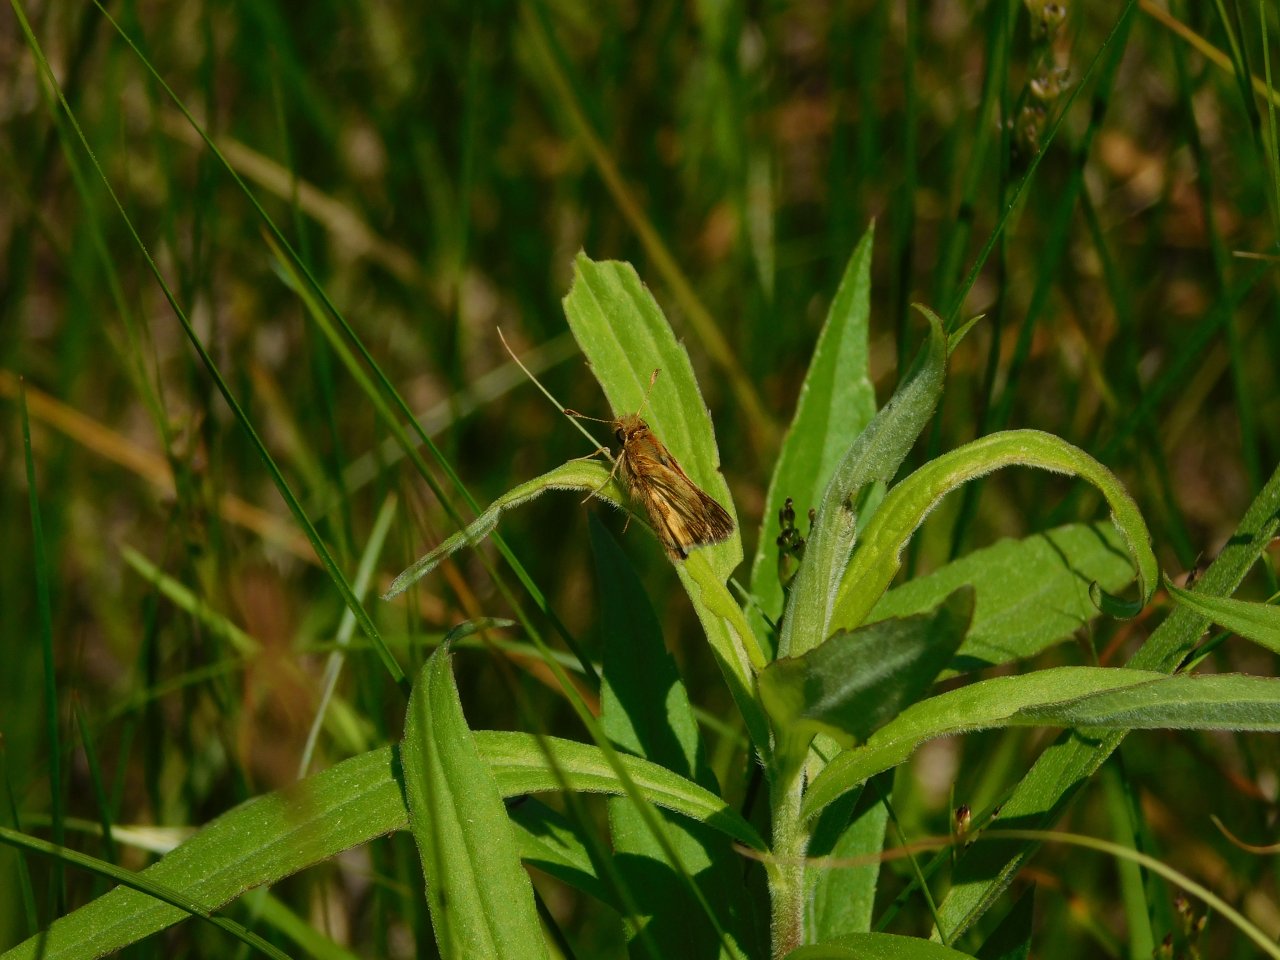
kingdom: Animalia
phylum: Arthropoda
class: Insecta
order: Lepidoptera
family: Hesperiidae
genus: Polites
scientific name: Polites coras
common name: Peck's Skipper
